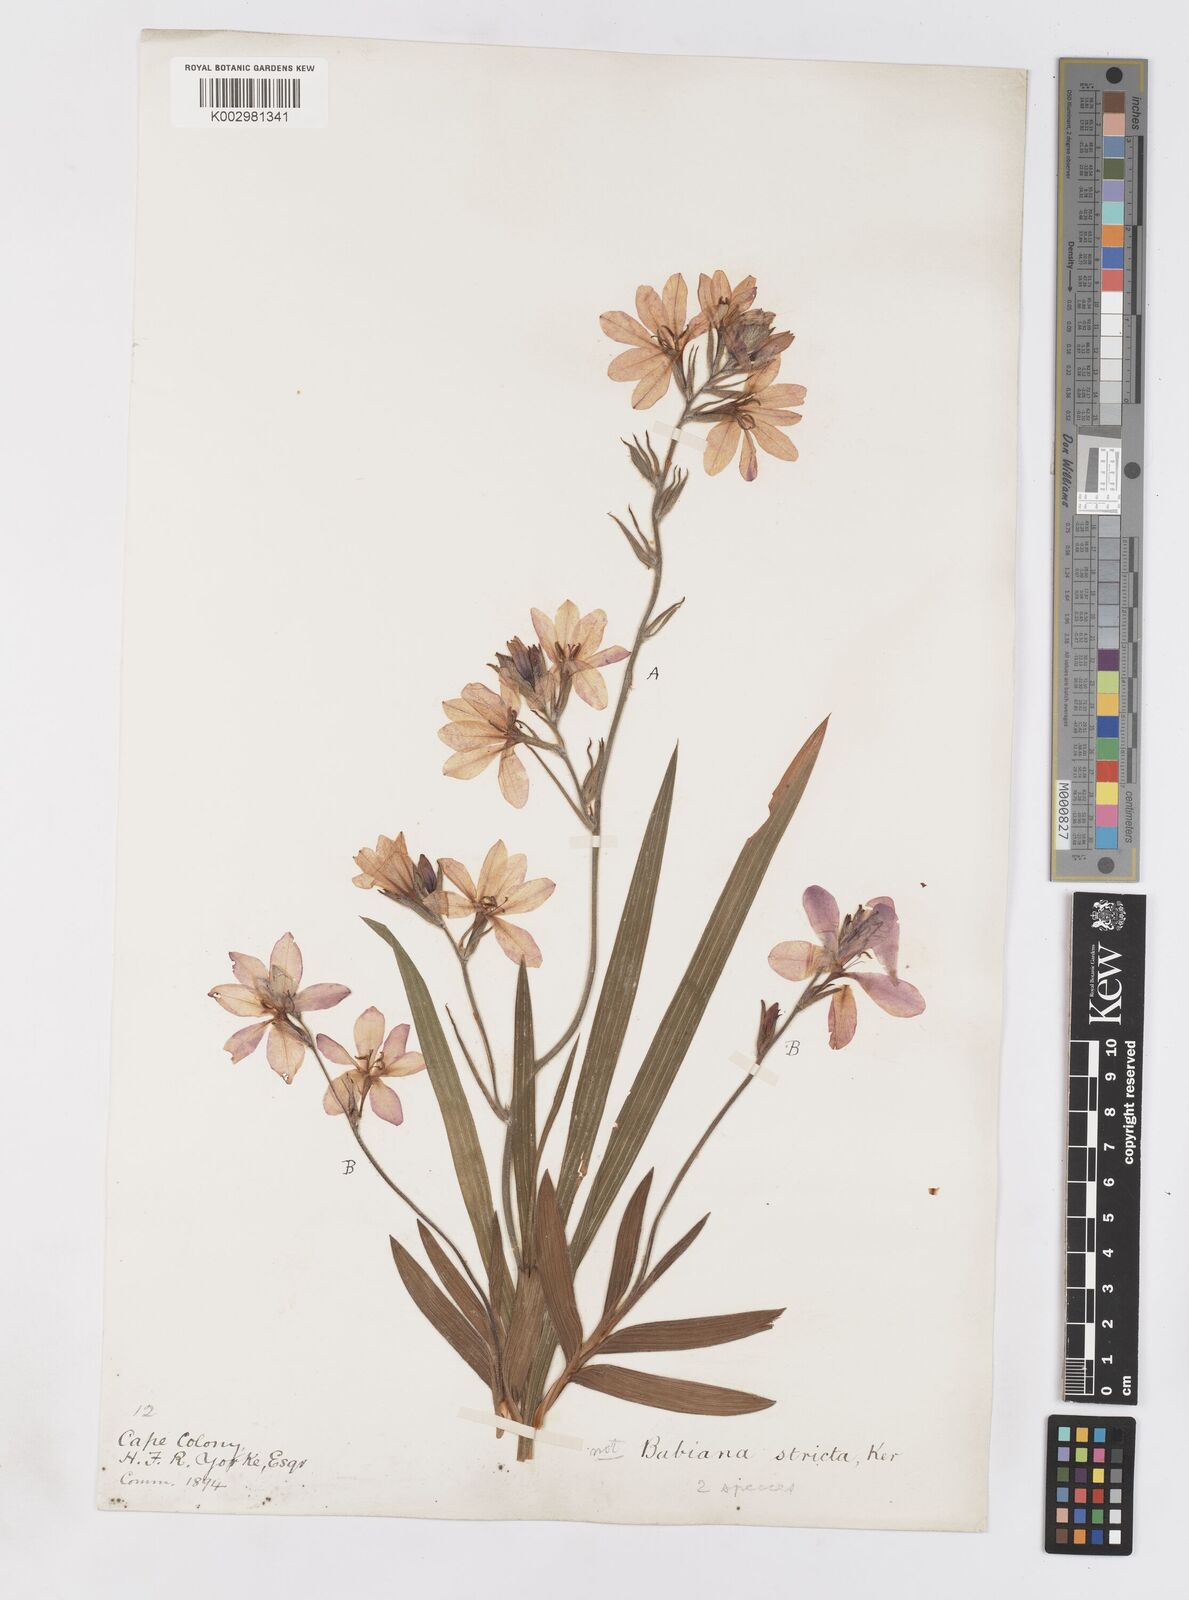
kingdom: Plantae
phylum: Tracheophyta
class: Liliopsida
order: Asparagales
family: Iridaceae
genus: Babiana
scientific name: Babiana
